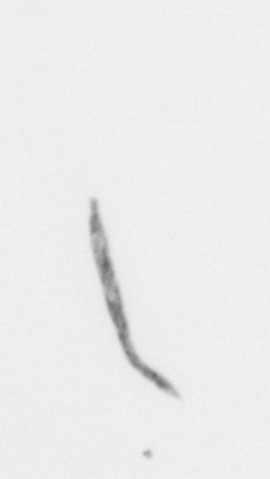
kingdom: Chromista
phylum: Ochrophyta
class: Bacillariophyceae
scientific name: Bacillariophyceae
